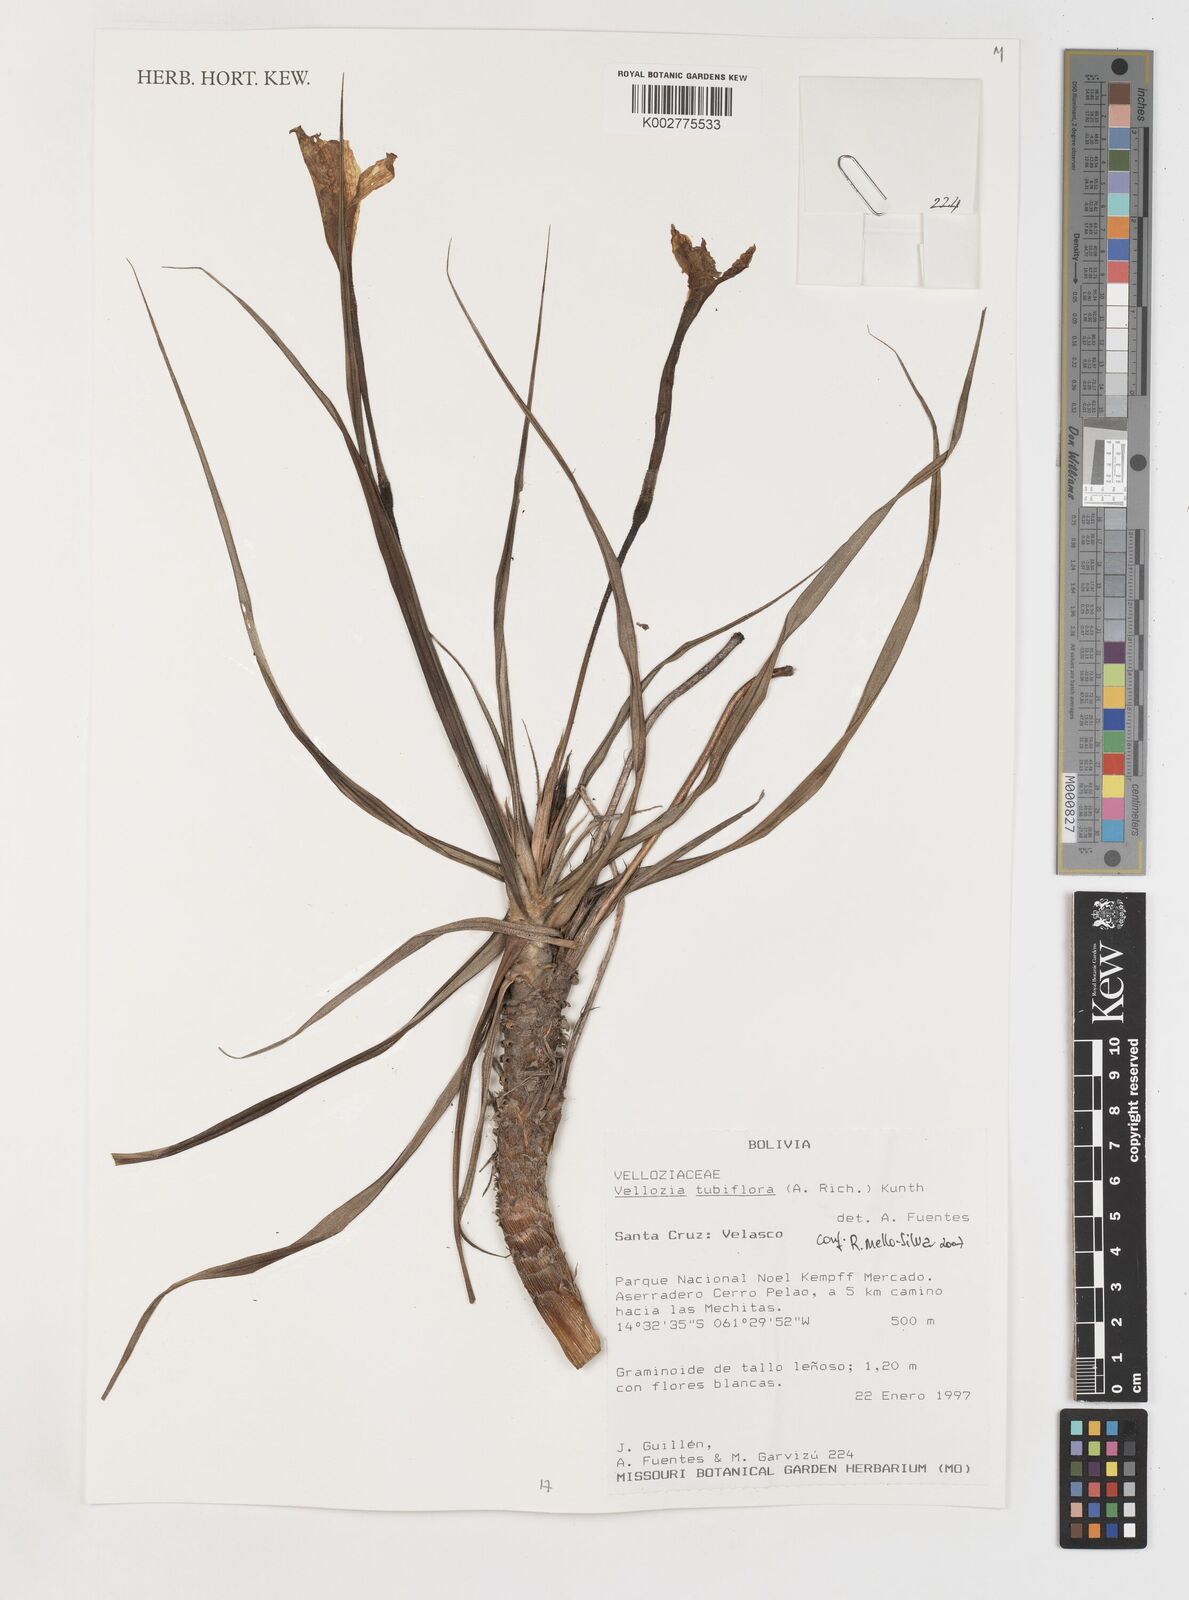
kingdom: Plantae
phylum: Tracheophyta
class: Liliopsida
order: Pandanales
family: Velloziaceae
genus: Vellozia
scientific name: Vellozia tubiflora
